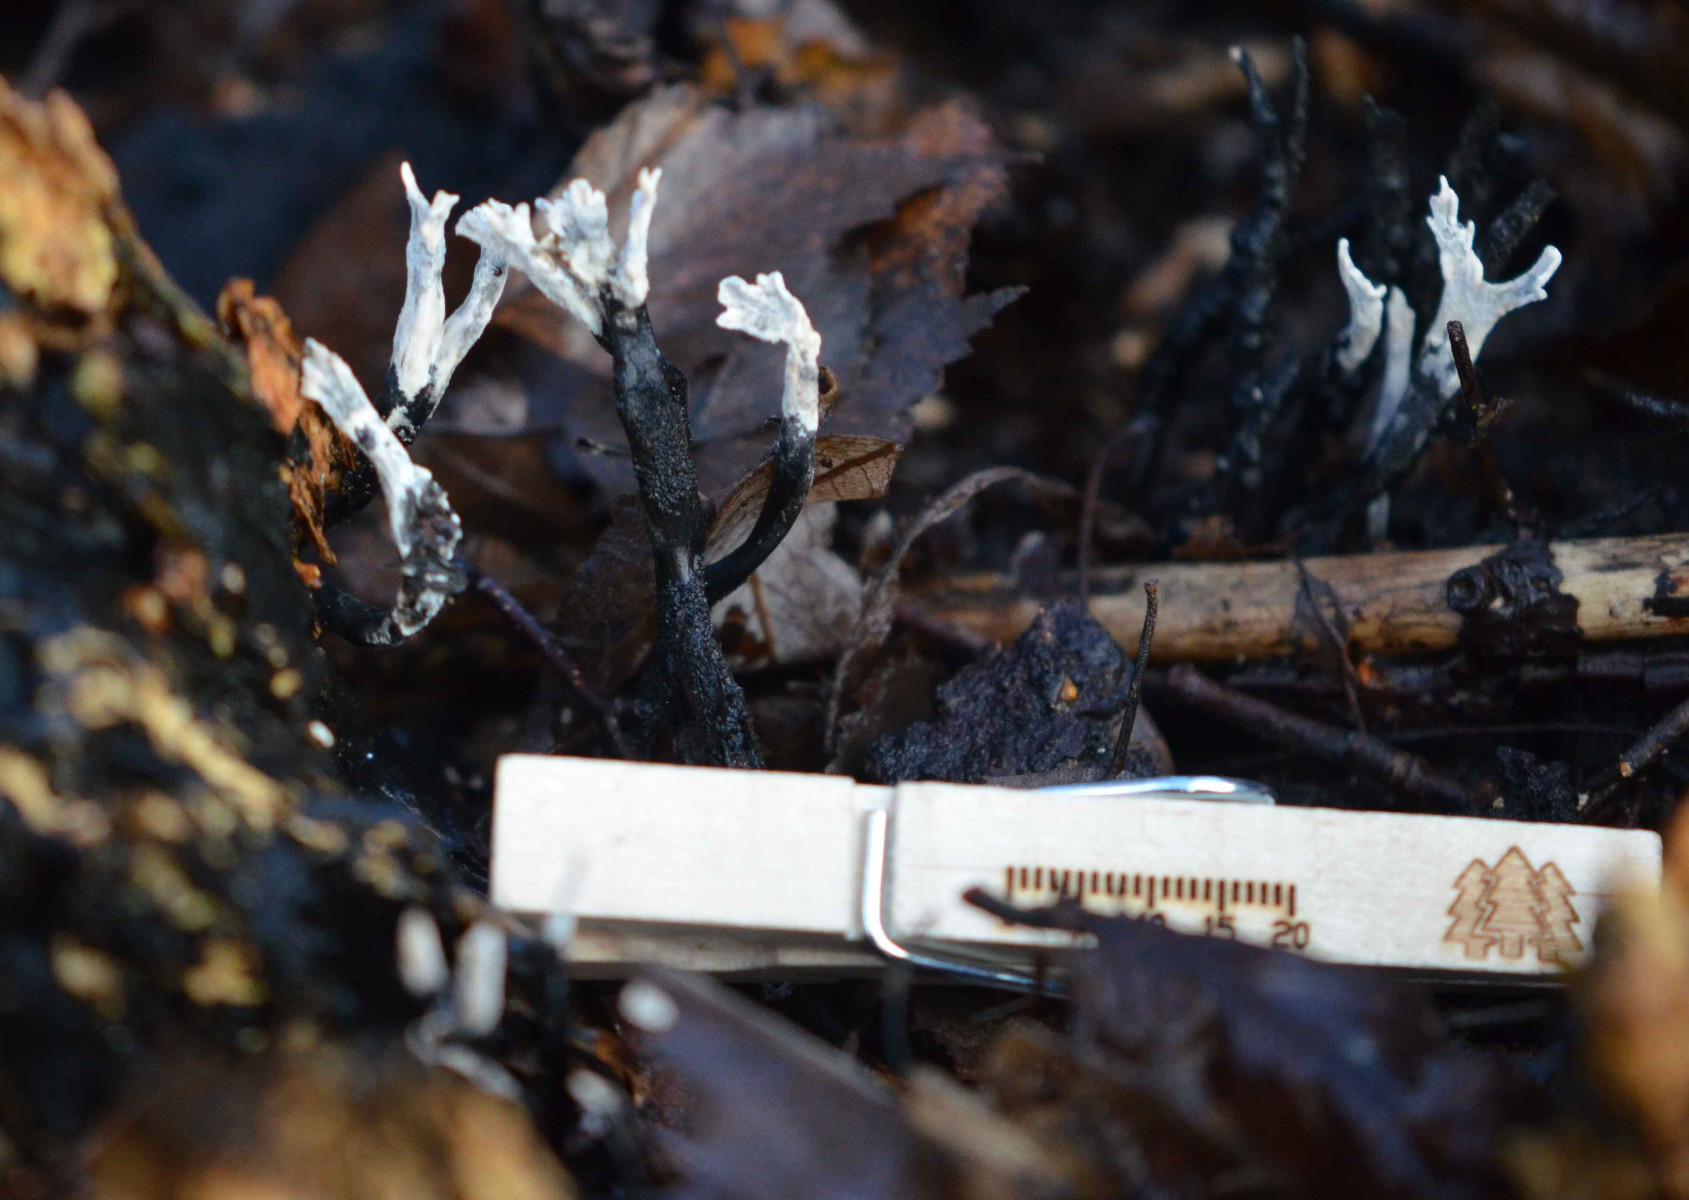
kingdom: Fungi
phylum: Ascomycota
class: Sordariomycetes
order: Xylariales
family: Xylariaceae
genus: Xylaria
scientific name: Xylaria hypoxylon
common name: grenet stødsvamp
